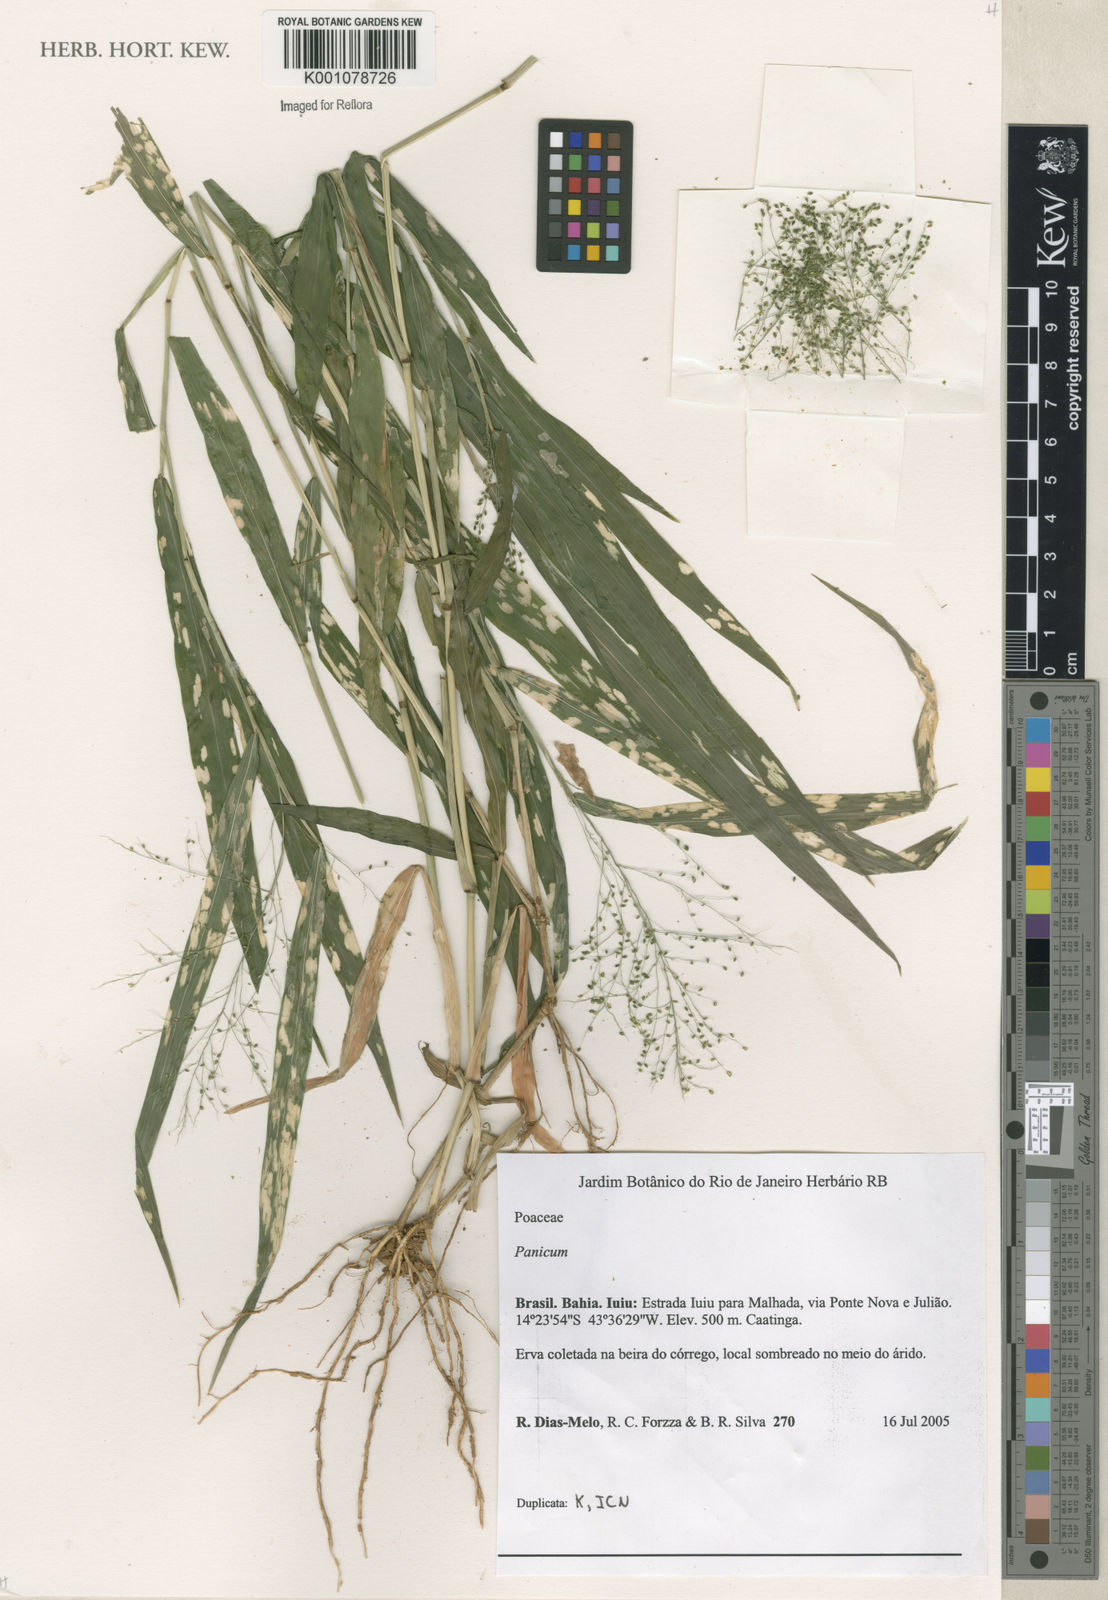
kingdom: Plantae
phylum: Tracheophyta
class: Liliopsida
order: Poales
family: Poaceae
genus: Panicum
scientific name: Panicum
